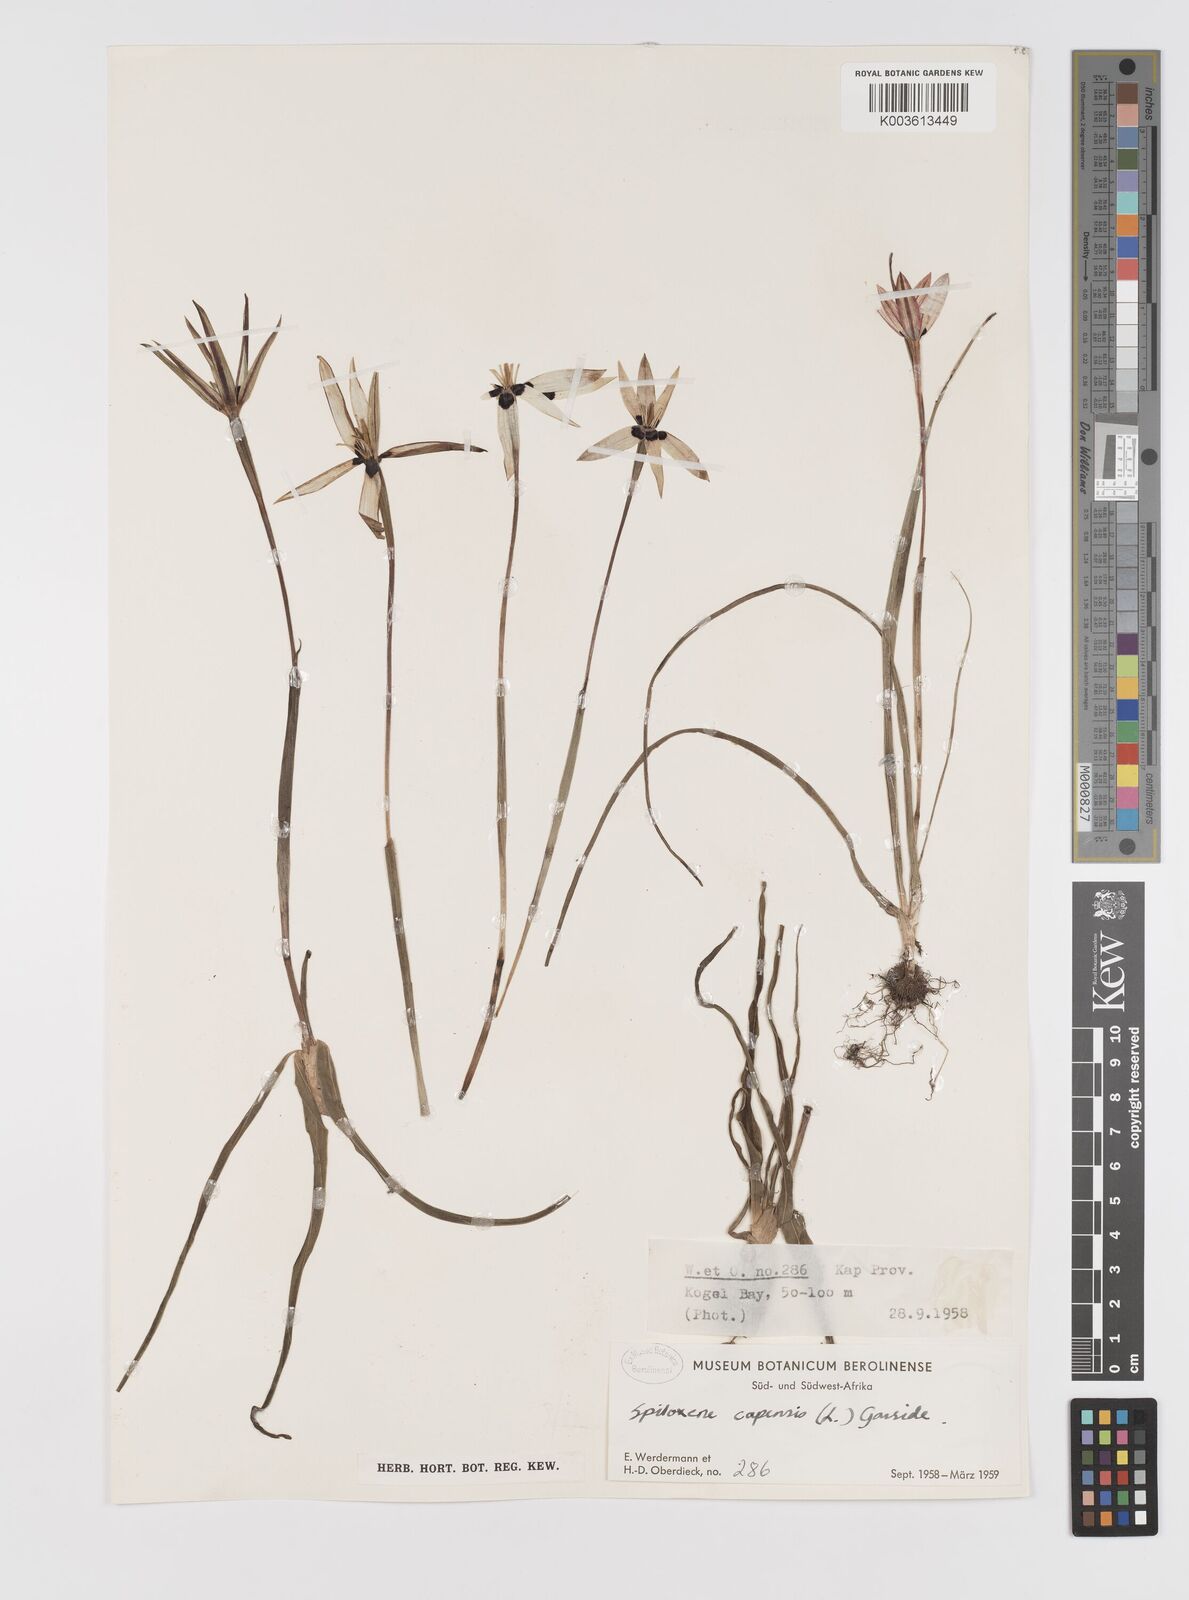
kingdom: Plantae
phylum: Tracheophyta
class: Liliopsida
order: Asparagales
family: Hypoxidaceae
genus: Pauridia
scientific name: Pauridia capensis
